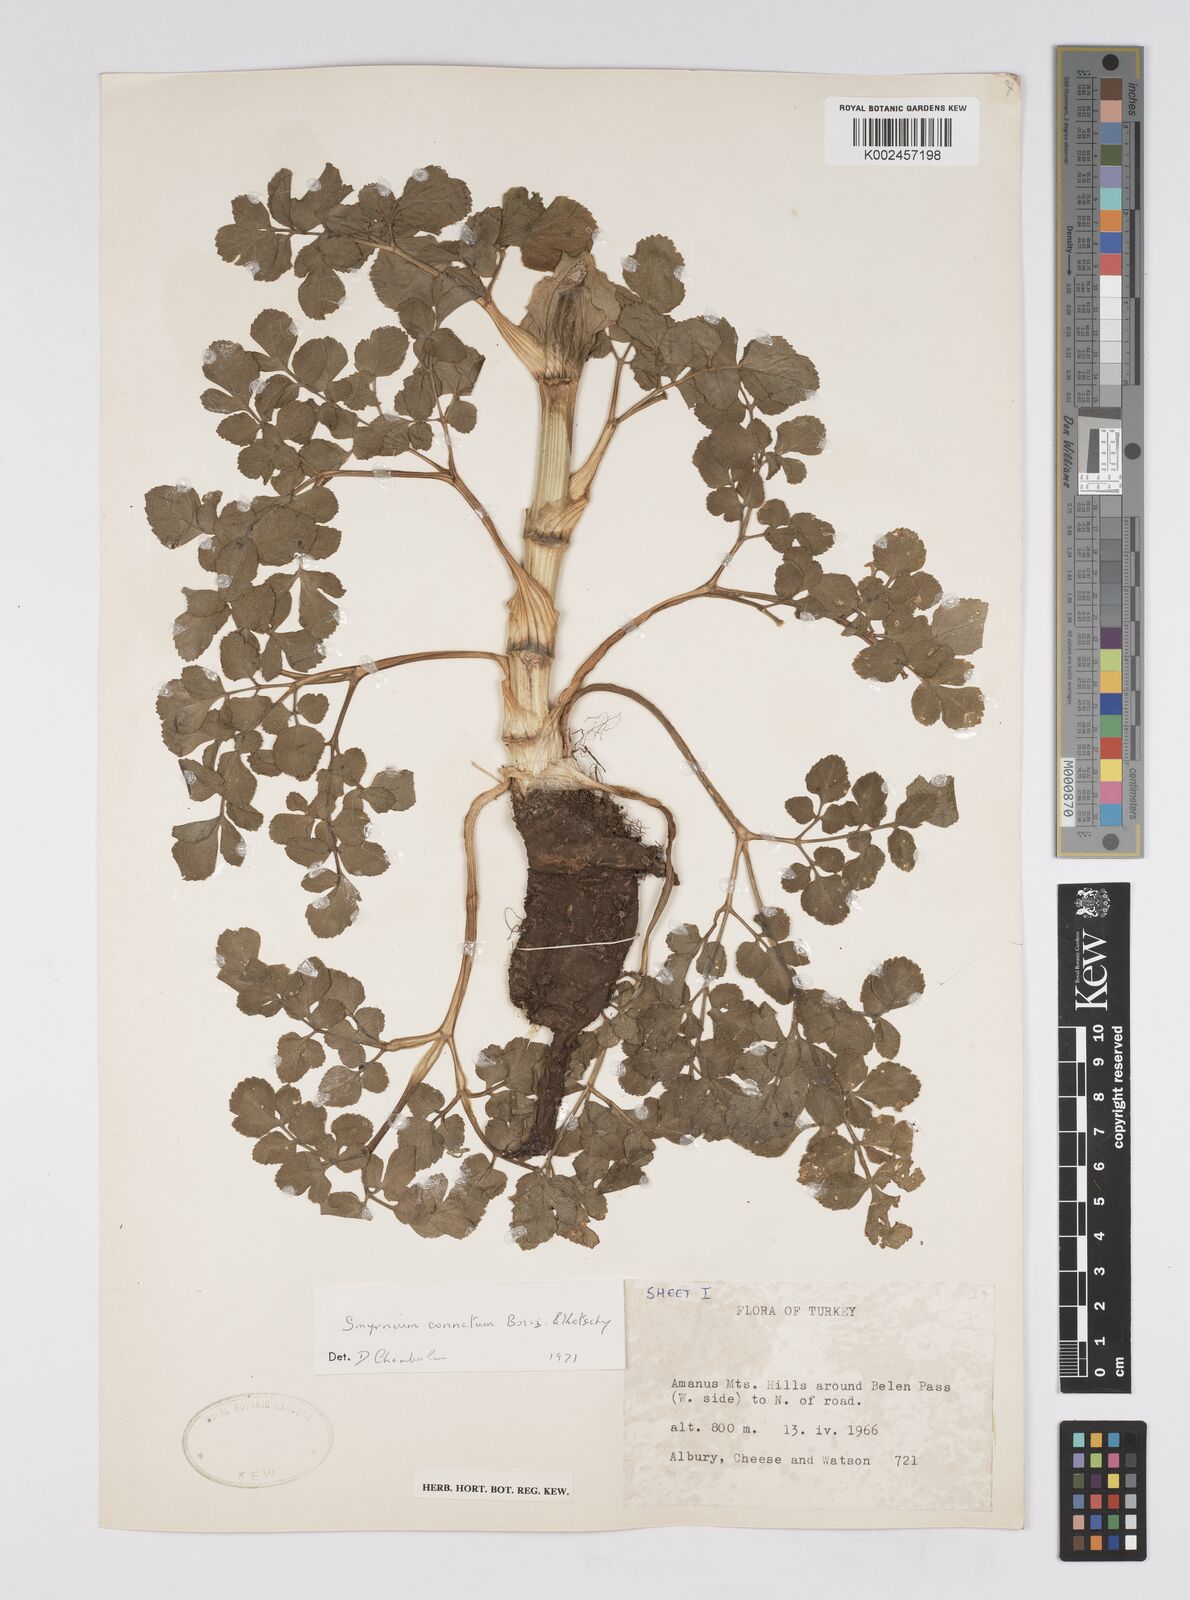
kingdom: Plantae
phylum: Tracheophyta
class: Magnoliopsida
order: Apiales
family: Apiaceae
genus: Smyrnium
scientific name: Smyrnium connatum
